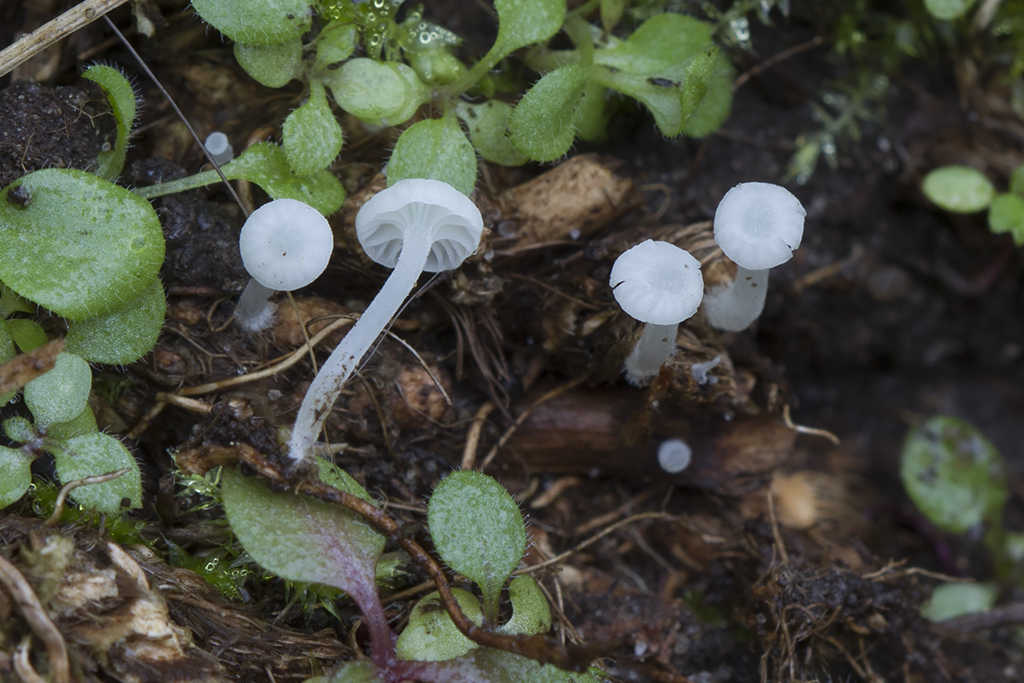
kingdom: Fungi
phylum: Basidiomycota
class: Agaricomycetes
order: Agaricales
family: Mycenaceae
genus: Atheniella
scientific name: Atheniella delectabilis
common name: nitrøs huesvamp
